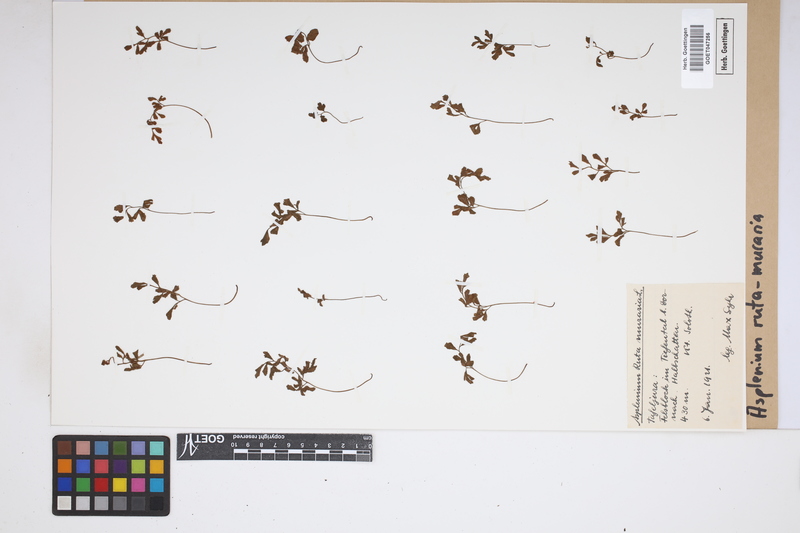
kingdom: Plantae
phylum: Tracheophyta
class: Polypodiopsida
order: Polypodiales
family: Aspleniaceae
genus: Asplenium
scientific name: Asplenium ruta-muraria
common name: Wall-rue
